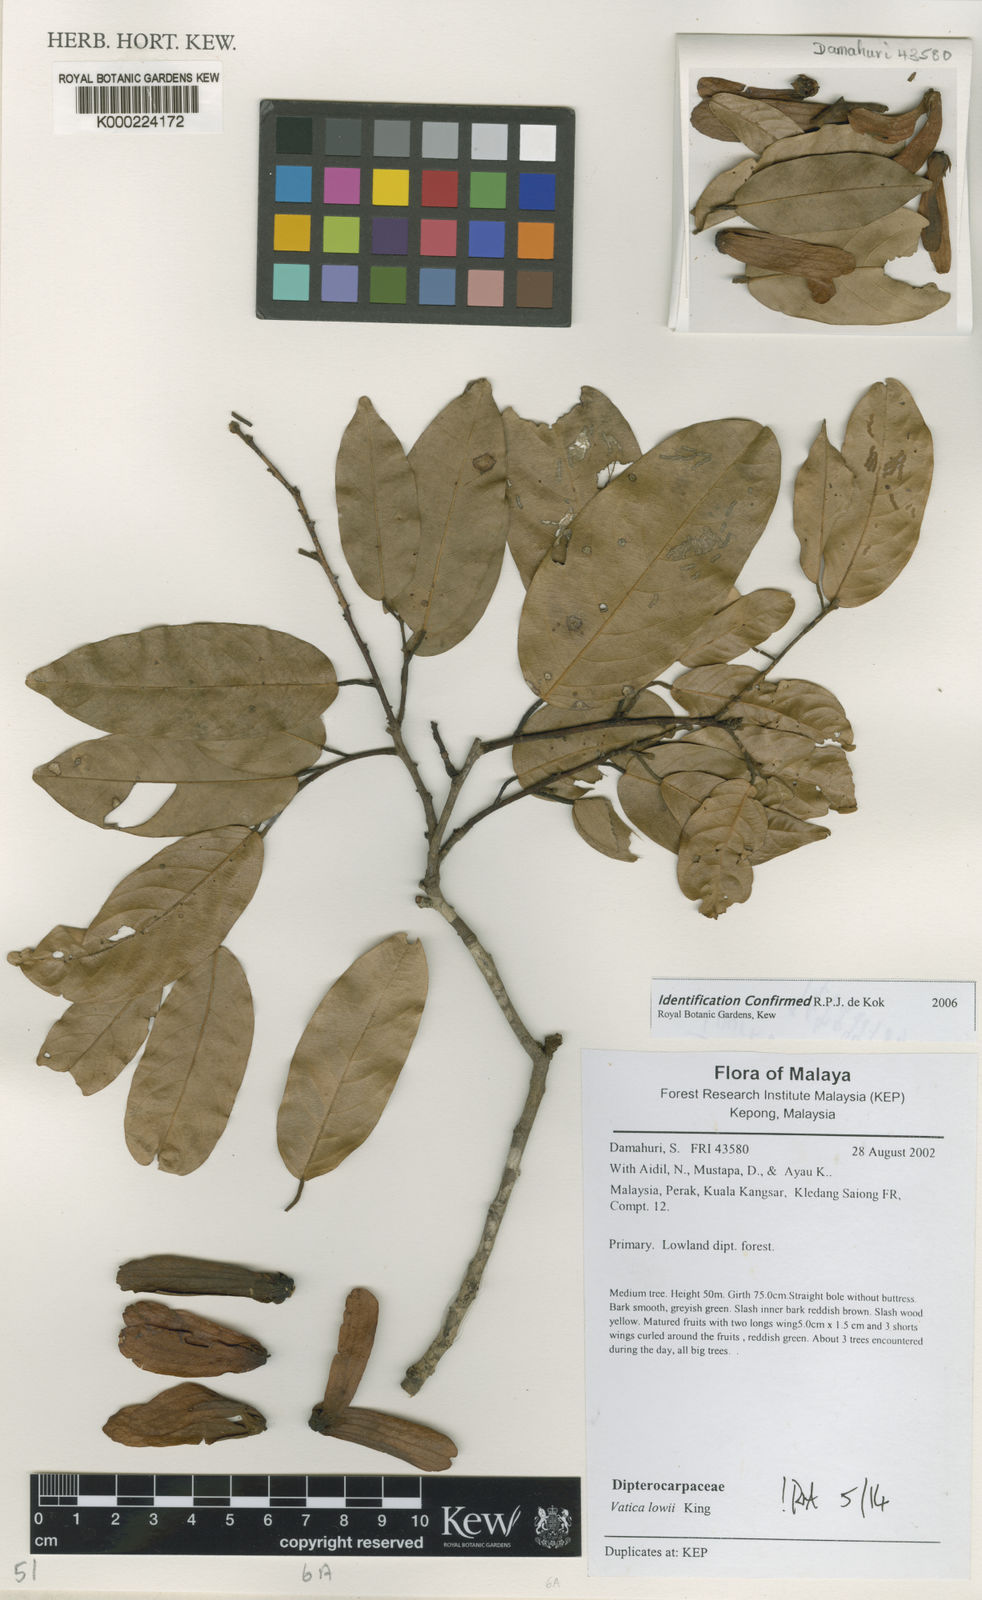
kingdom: Plantae
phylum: Tracheophyta
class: Magnoliopsida
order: Malvales
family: Dipterocarpaceae
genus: Vatica
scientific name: Vatica lowii
